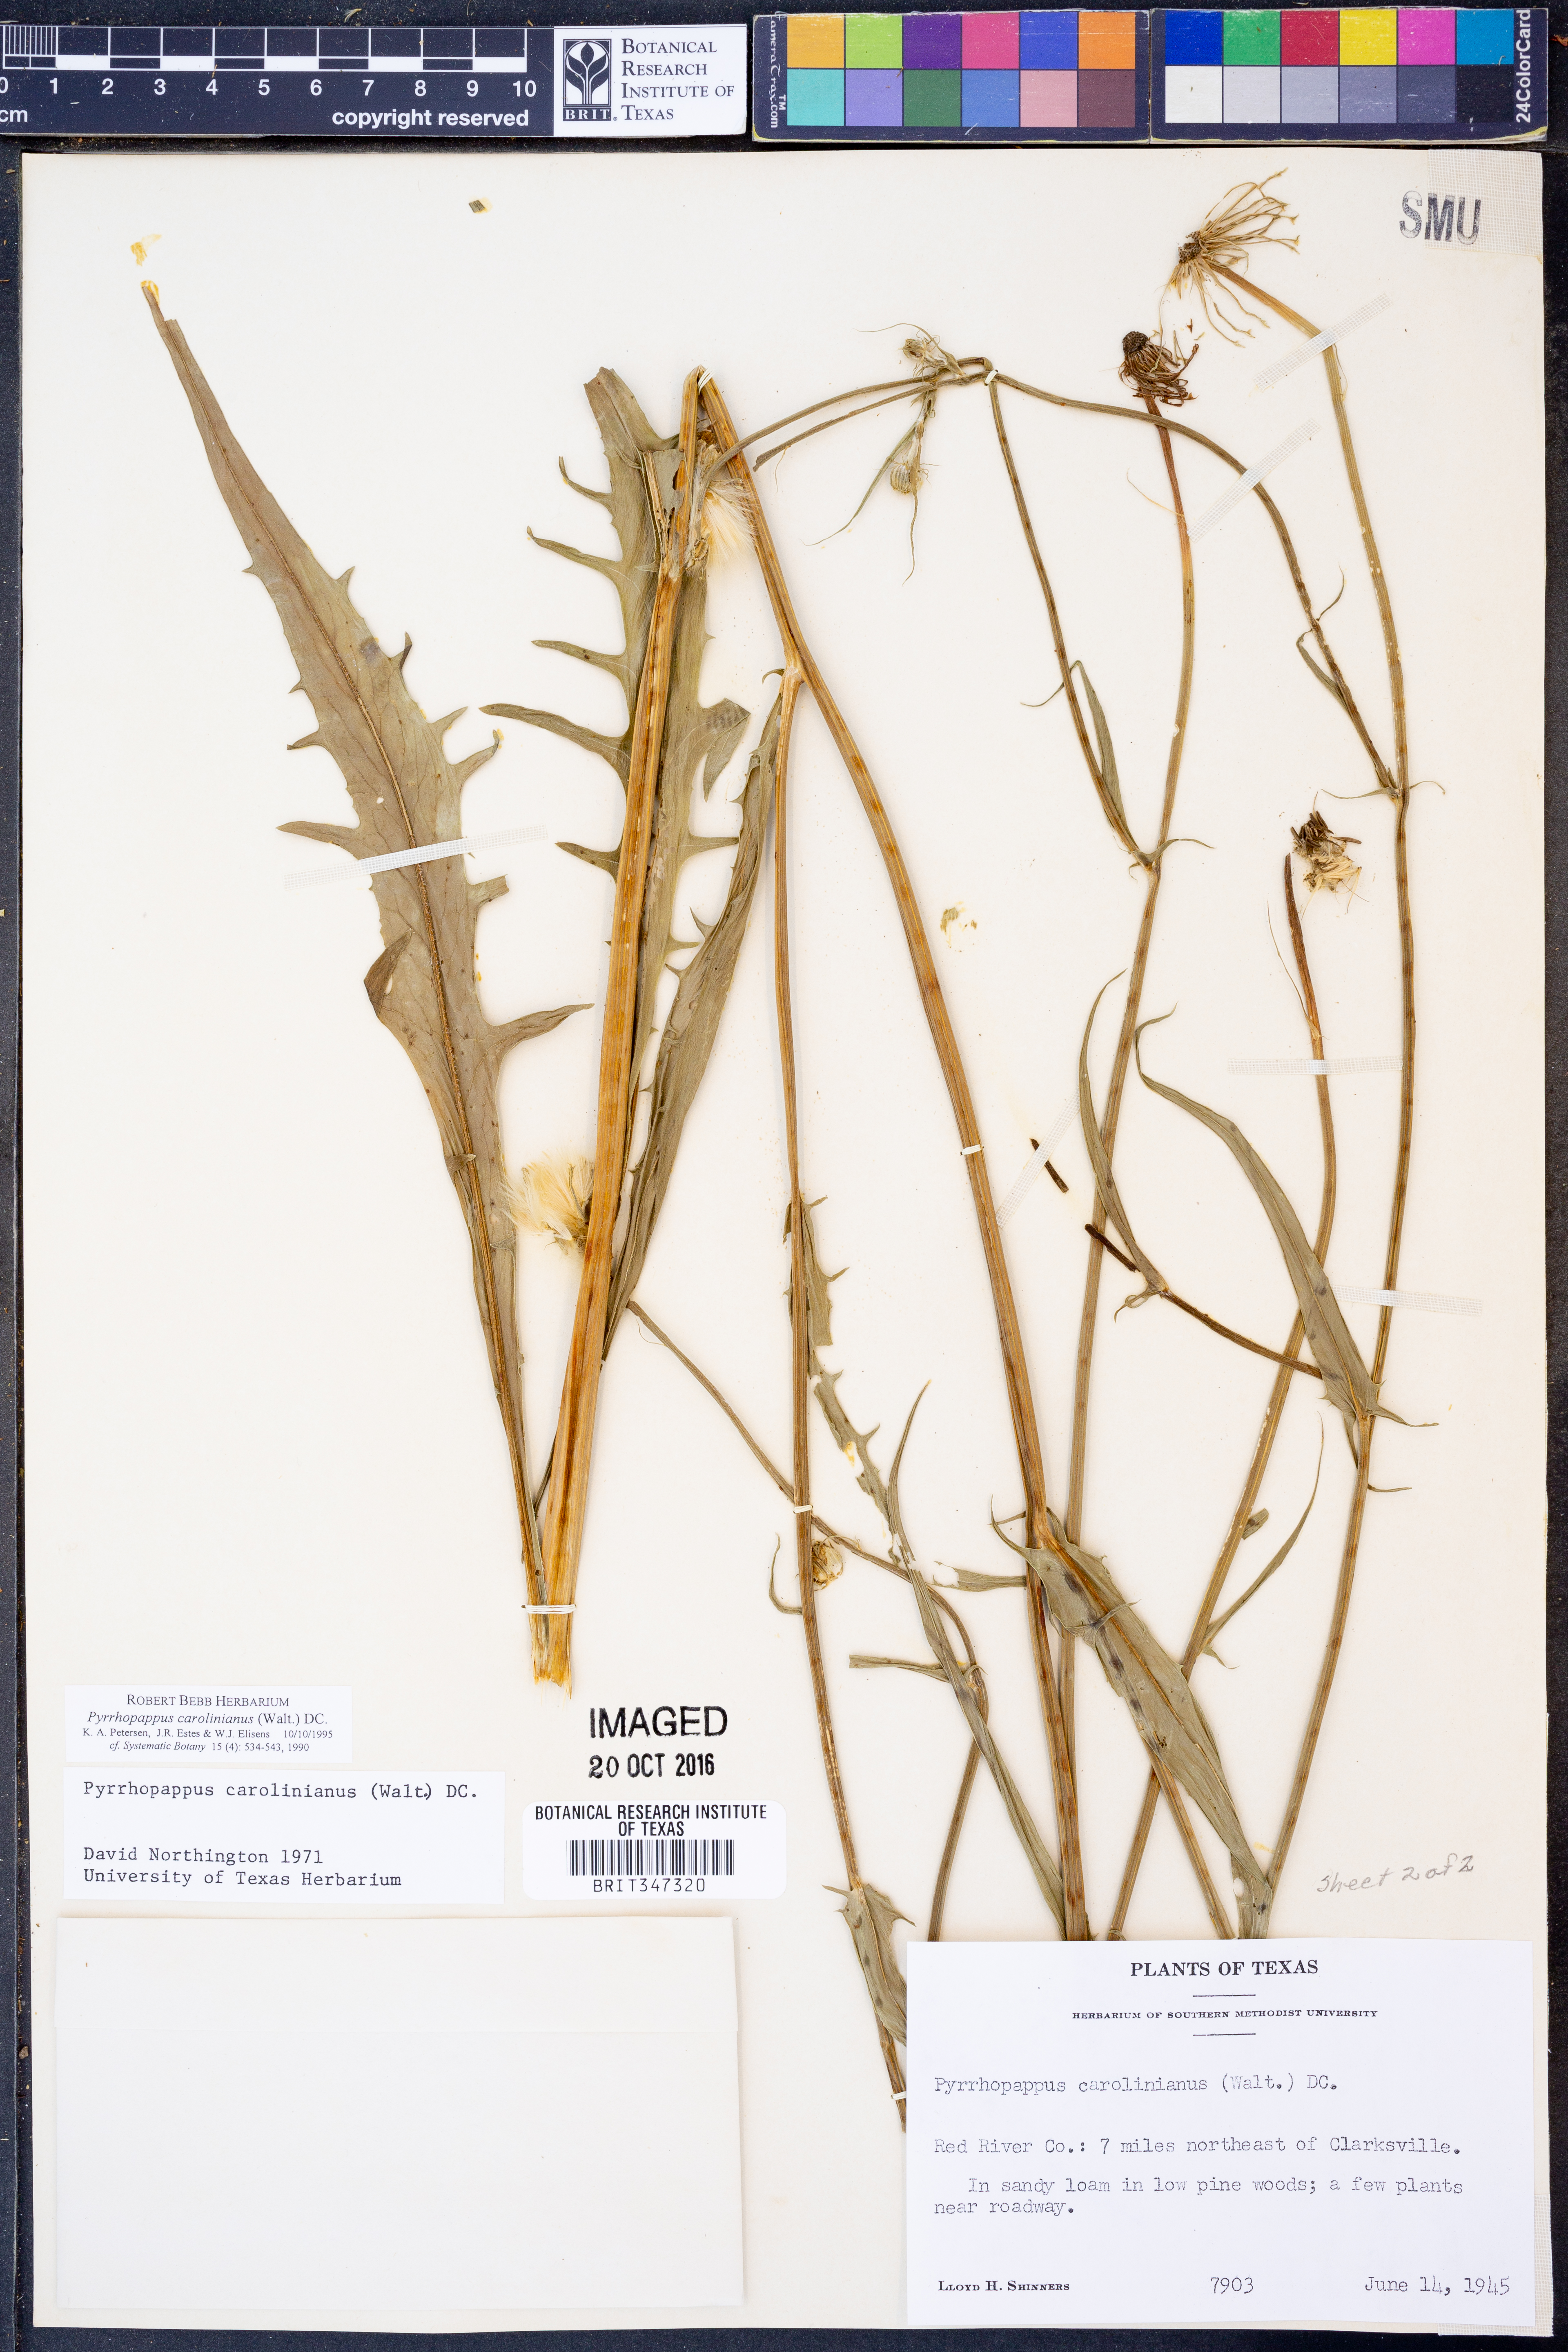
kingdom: Plantae
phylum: Tracheophyta
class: Magnoliopsida
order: Asterales
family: Asteraceae
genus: Pyrrhopappus
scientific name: Pyrrhopappus carolinianus
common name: Carolina desert-chicory
